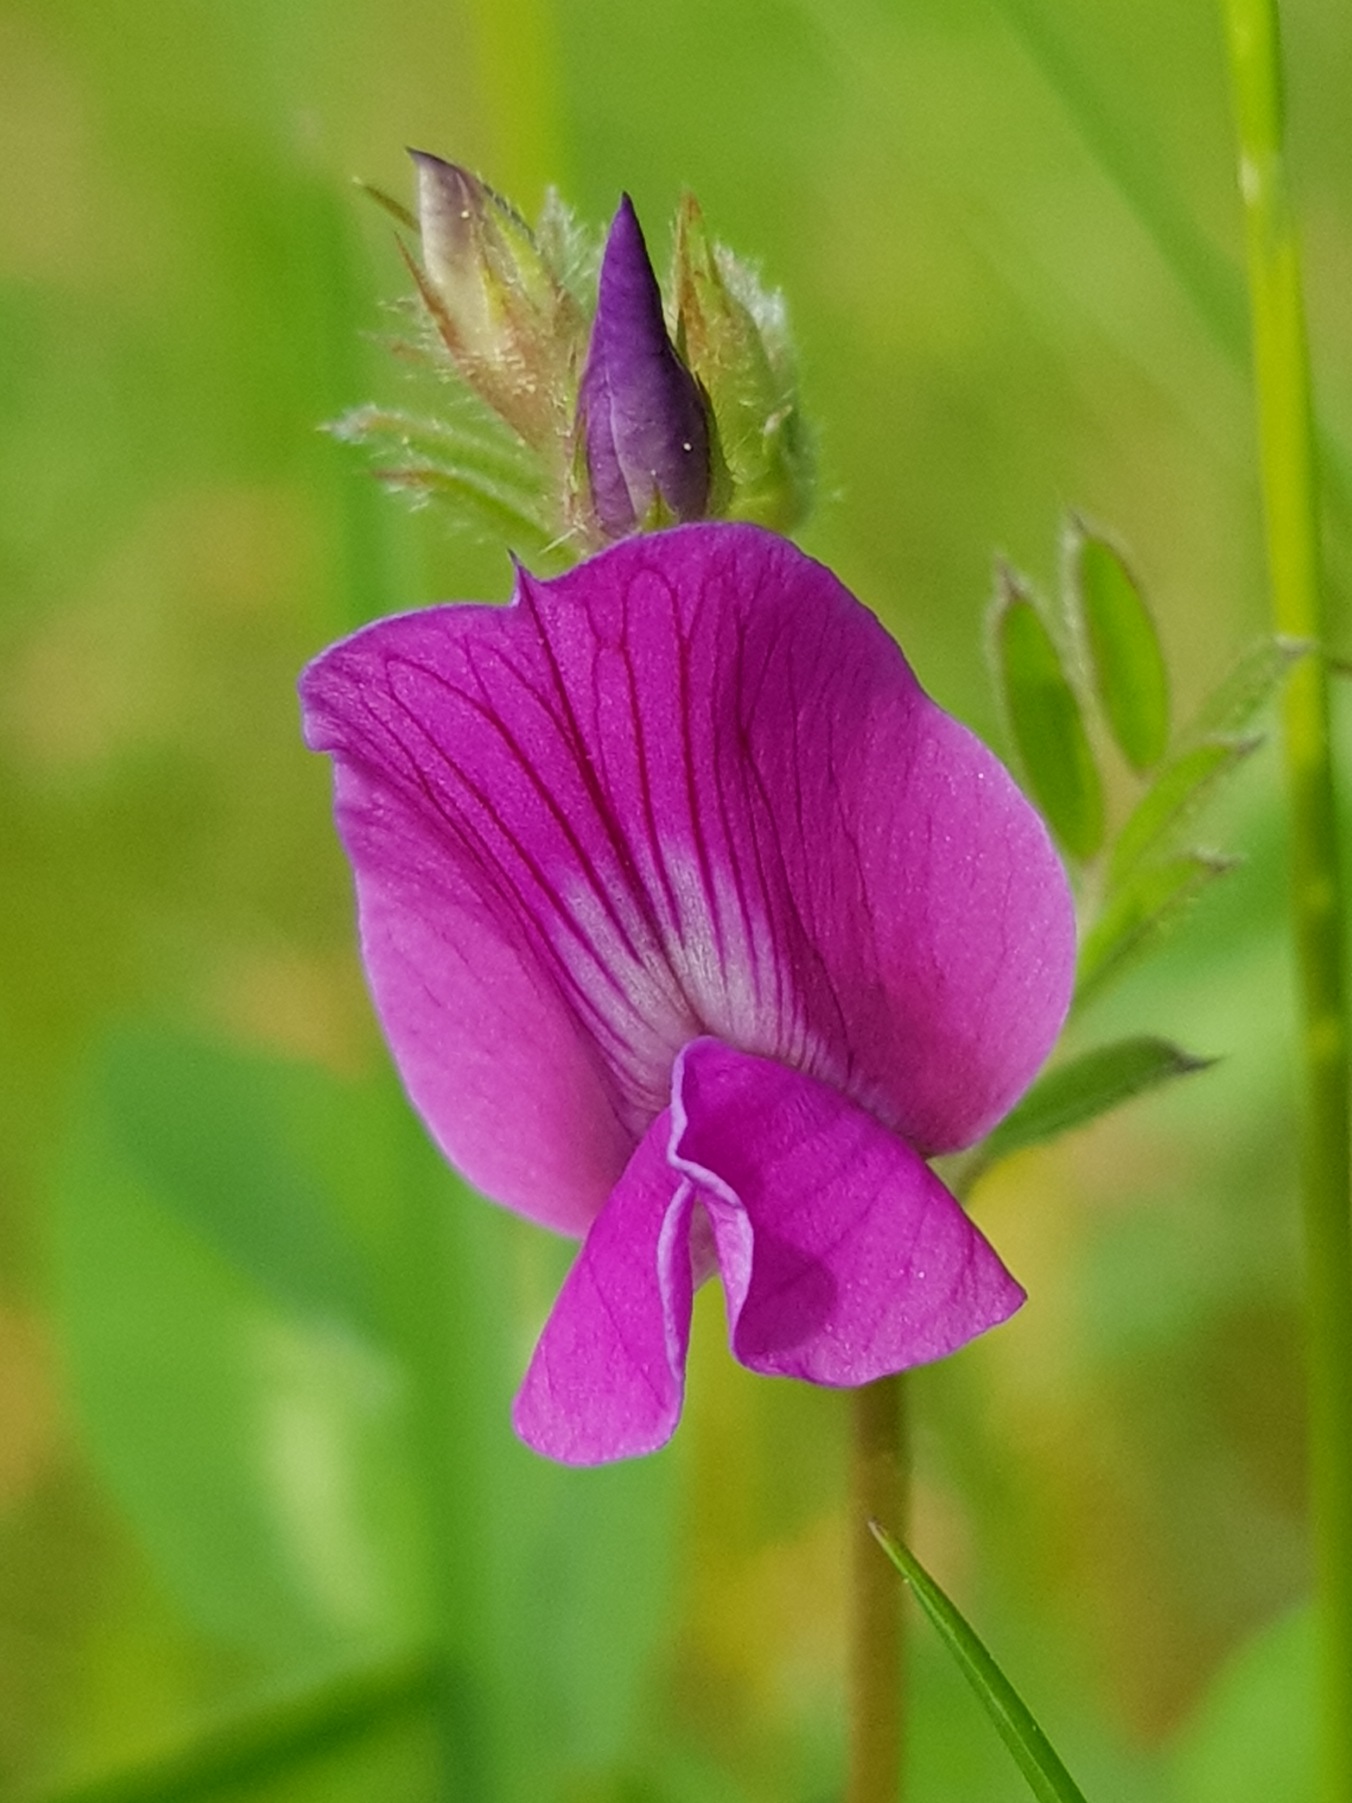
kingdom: Plantae
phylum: Tracheophyta
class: Magnoliopsida
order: Fabales
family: Fabaceae
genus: Vicia
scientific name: Vicia sativa
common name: Foder-vikke
